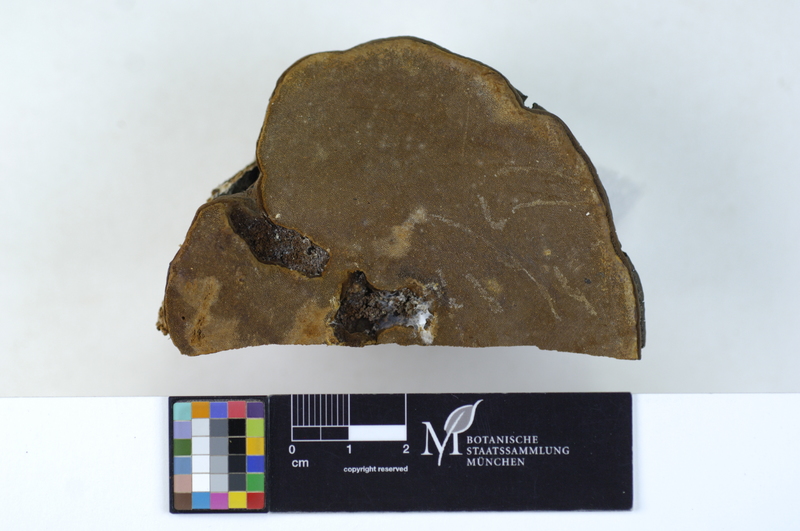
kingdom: Plantae
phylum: Tracheophyta
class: Magnoliopsida
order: Fagales
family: Betulaceae
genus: Betula
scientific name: Betula
